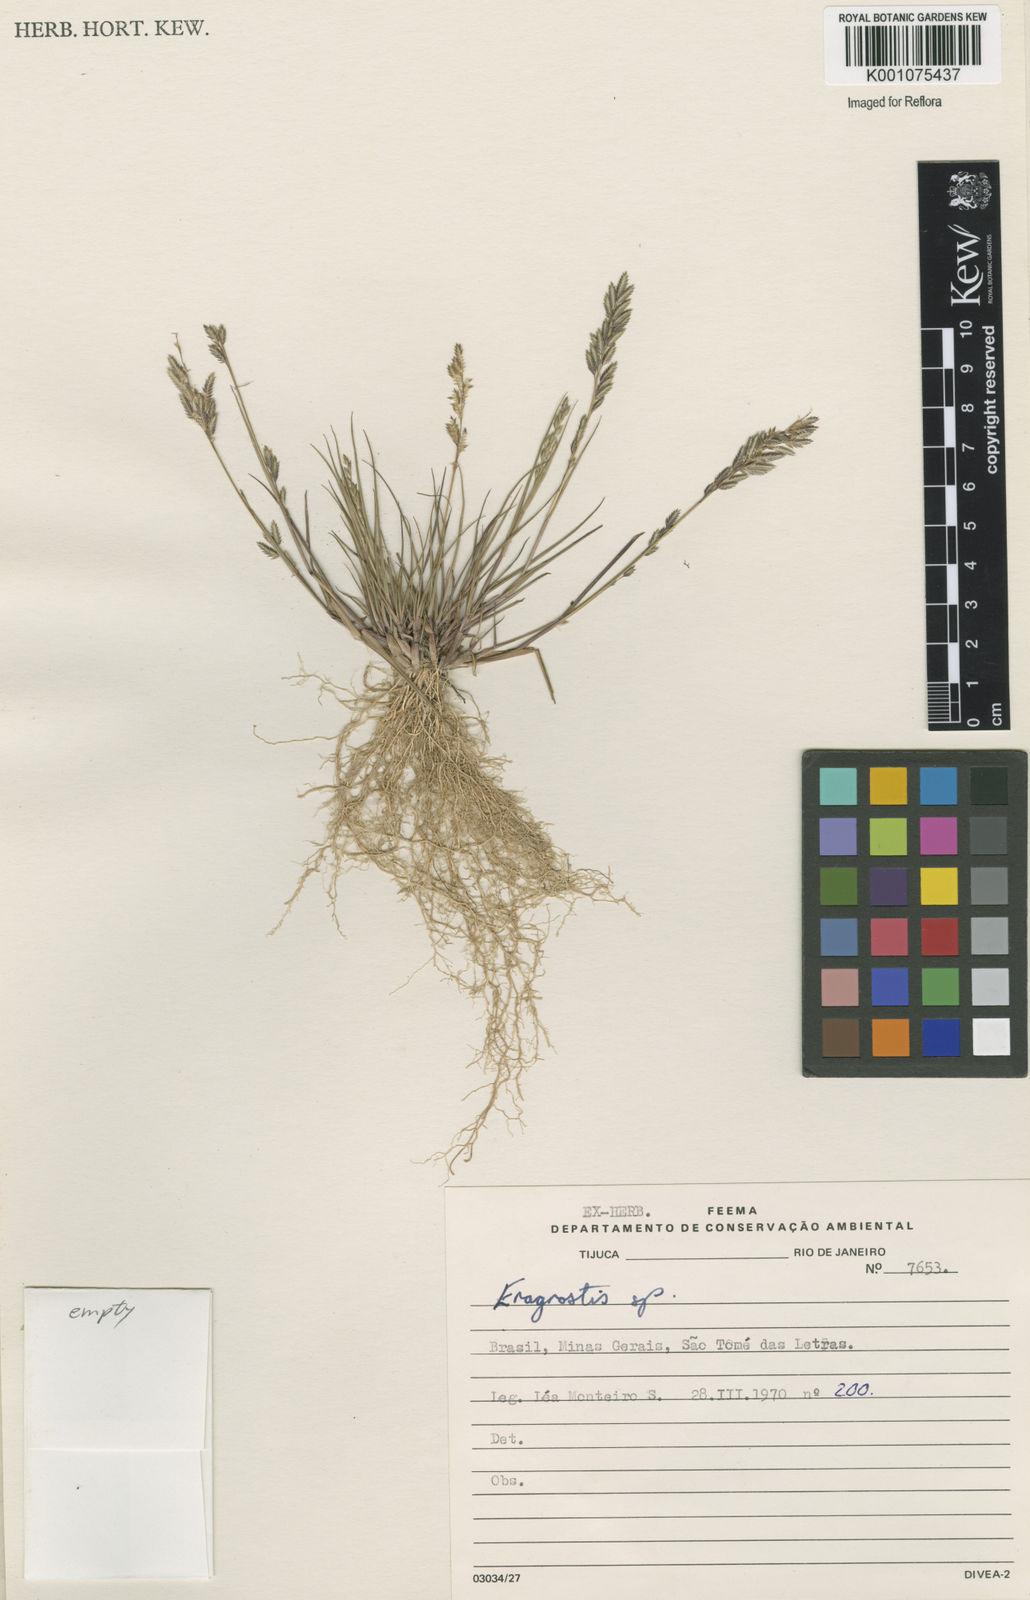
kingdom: Plantae
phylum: Tracheophyta
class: Liliopsida
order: Poales
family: Poaceae
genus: Eragrostis
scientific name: Eragrostis rufescens
